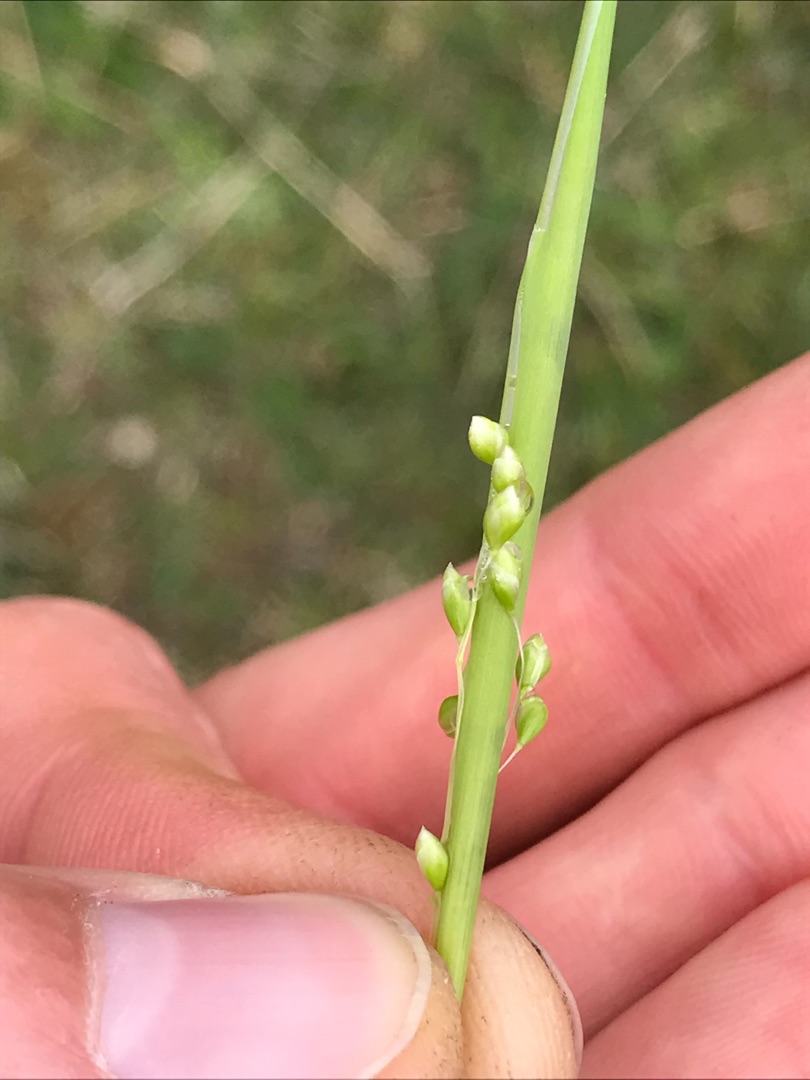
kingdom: Plantae
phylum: Tracheophyta
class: Liliopsida
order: Poales
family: Poaceae
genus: Briza
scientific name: Briza media
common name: Hjertegræs
